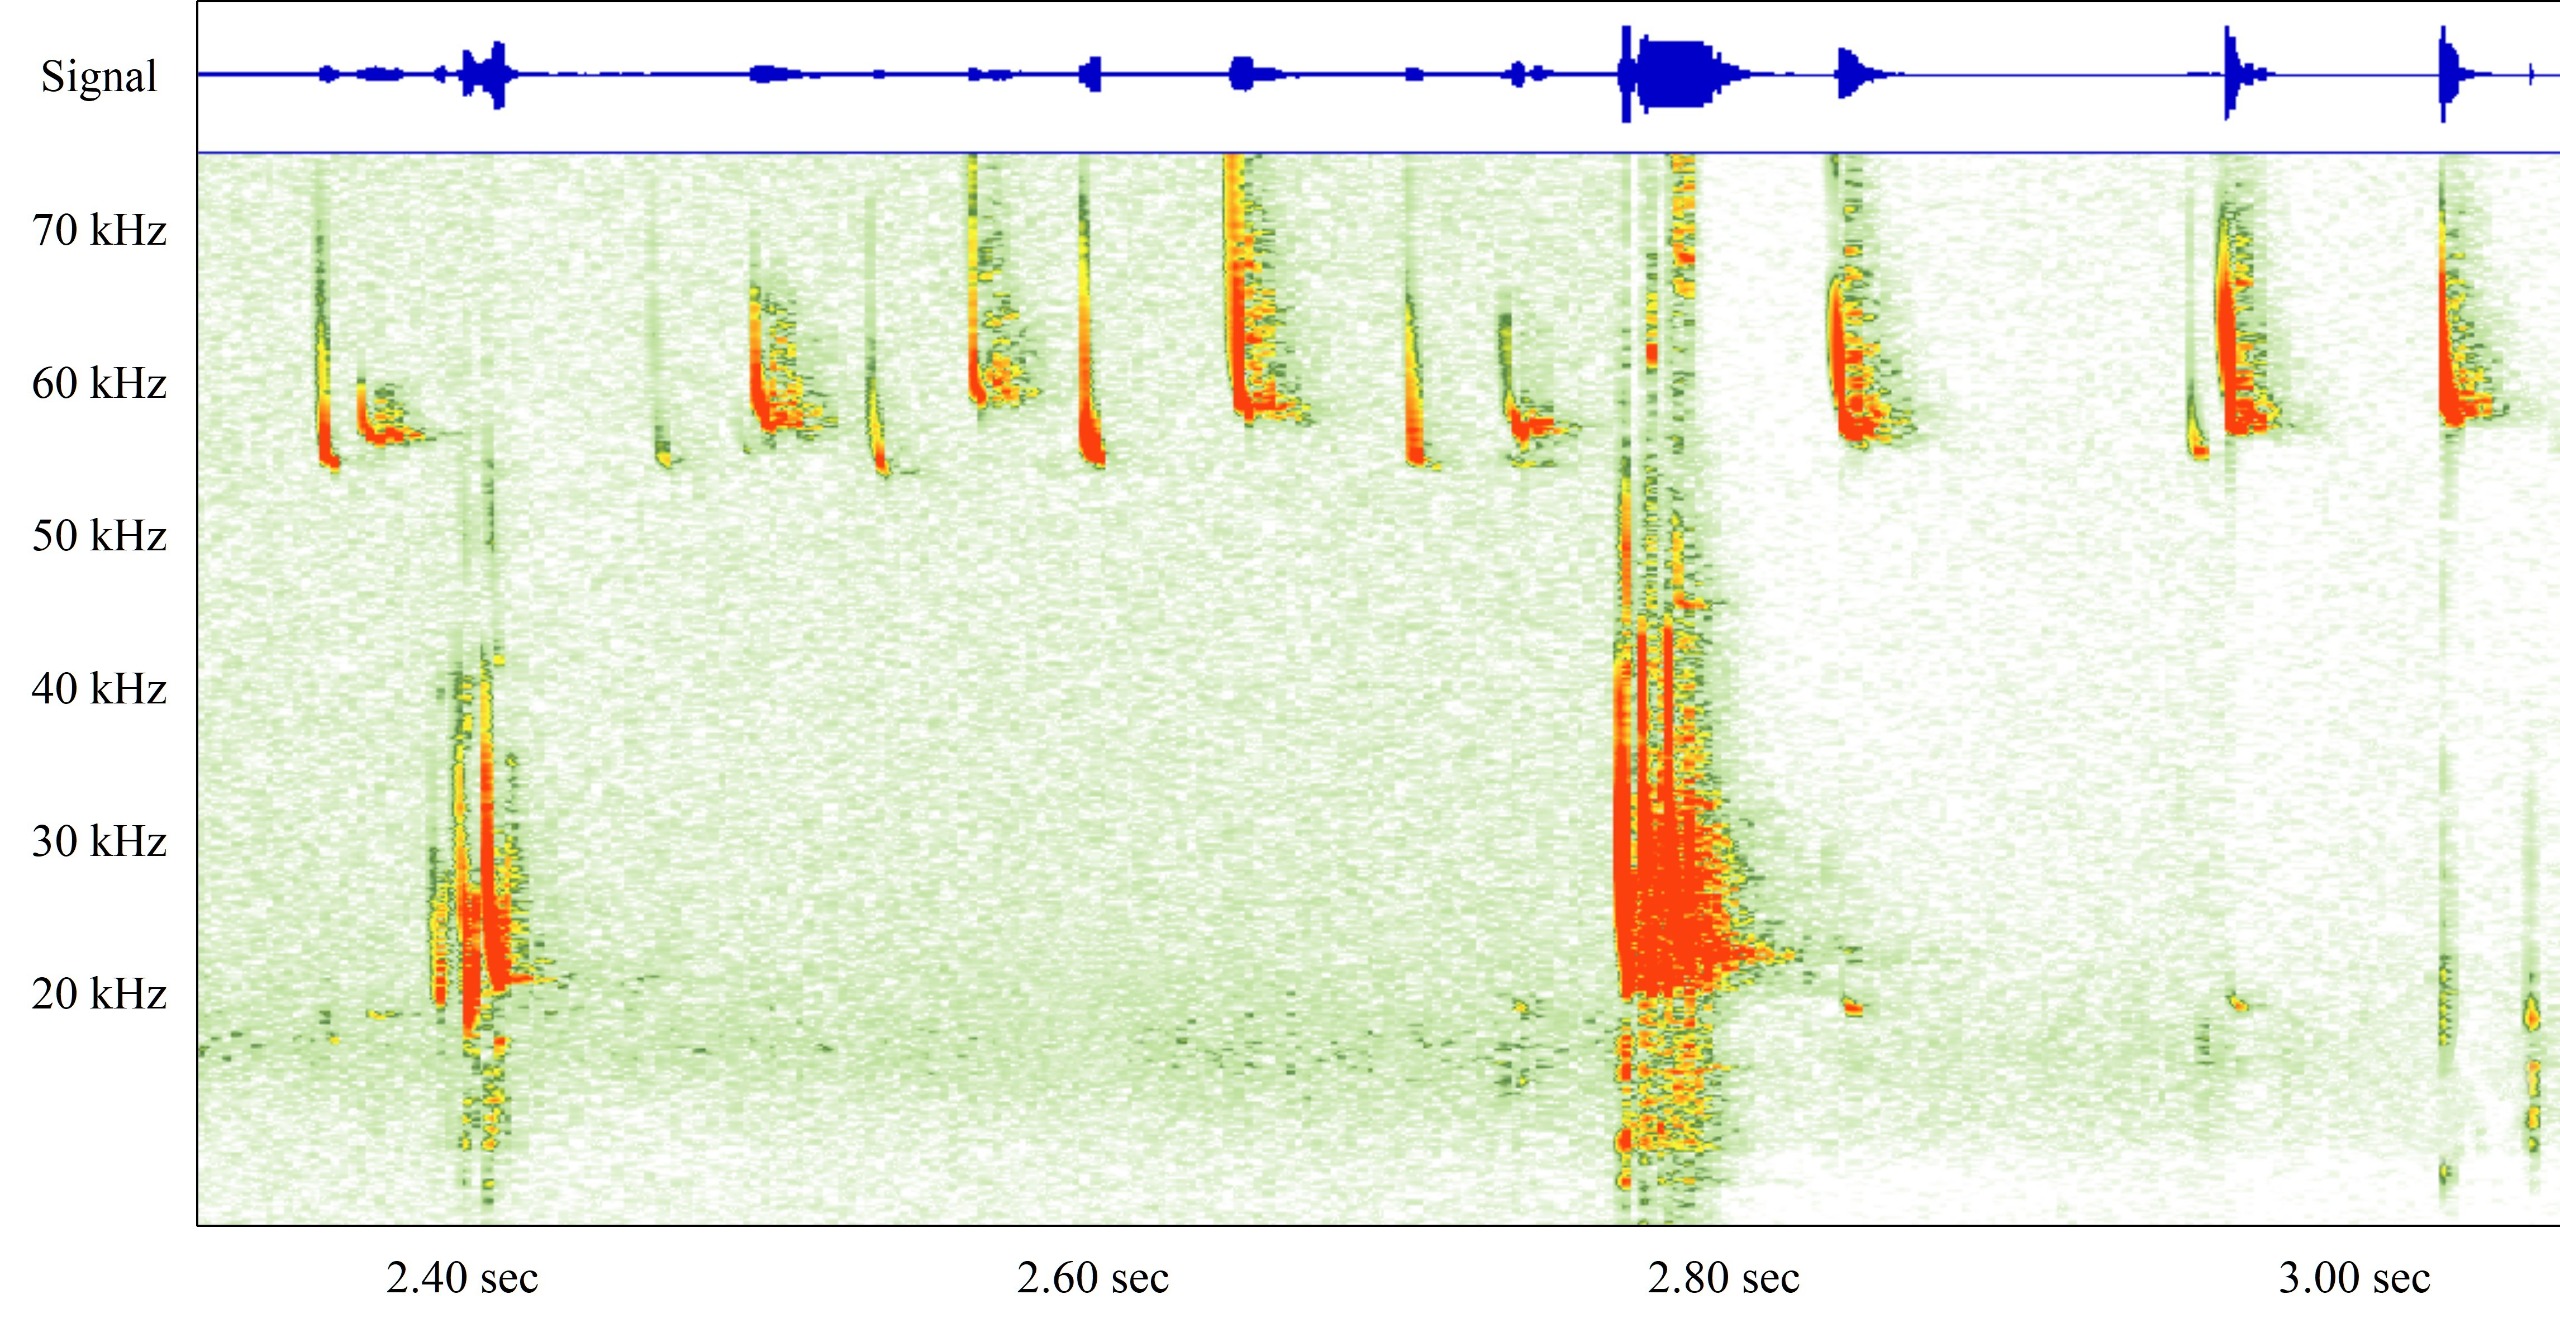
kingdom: Animalia
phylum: Chordata
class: Mammalia
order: Chiroptera
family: Vespertilionidae
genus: Pipistrellus
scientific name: Pipistrellus pygmaeus
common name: Dværgflagermus
